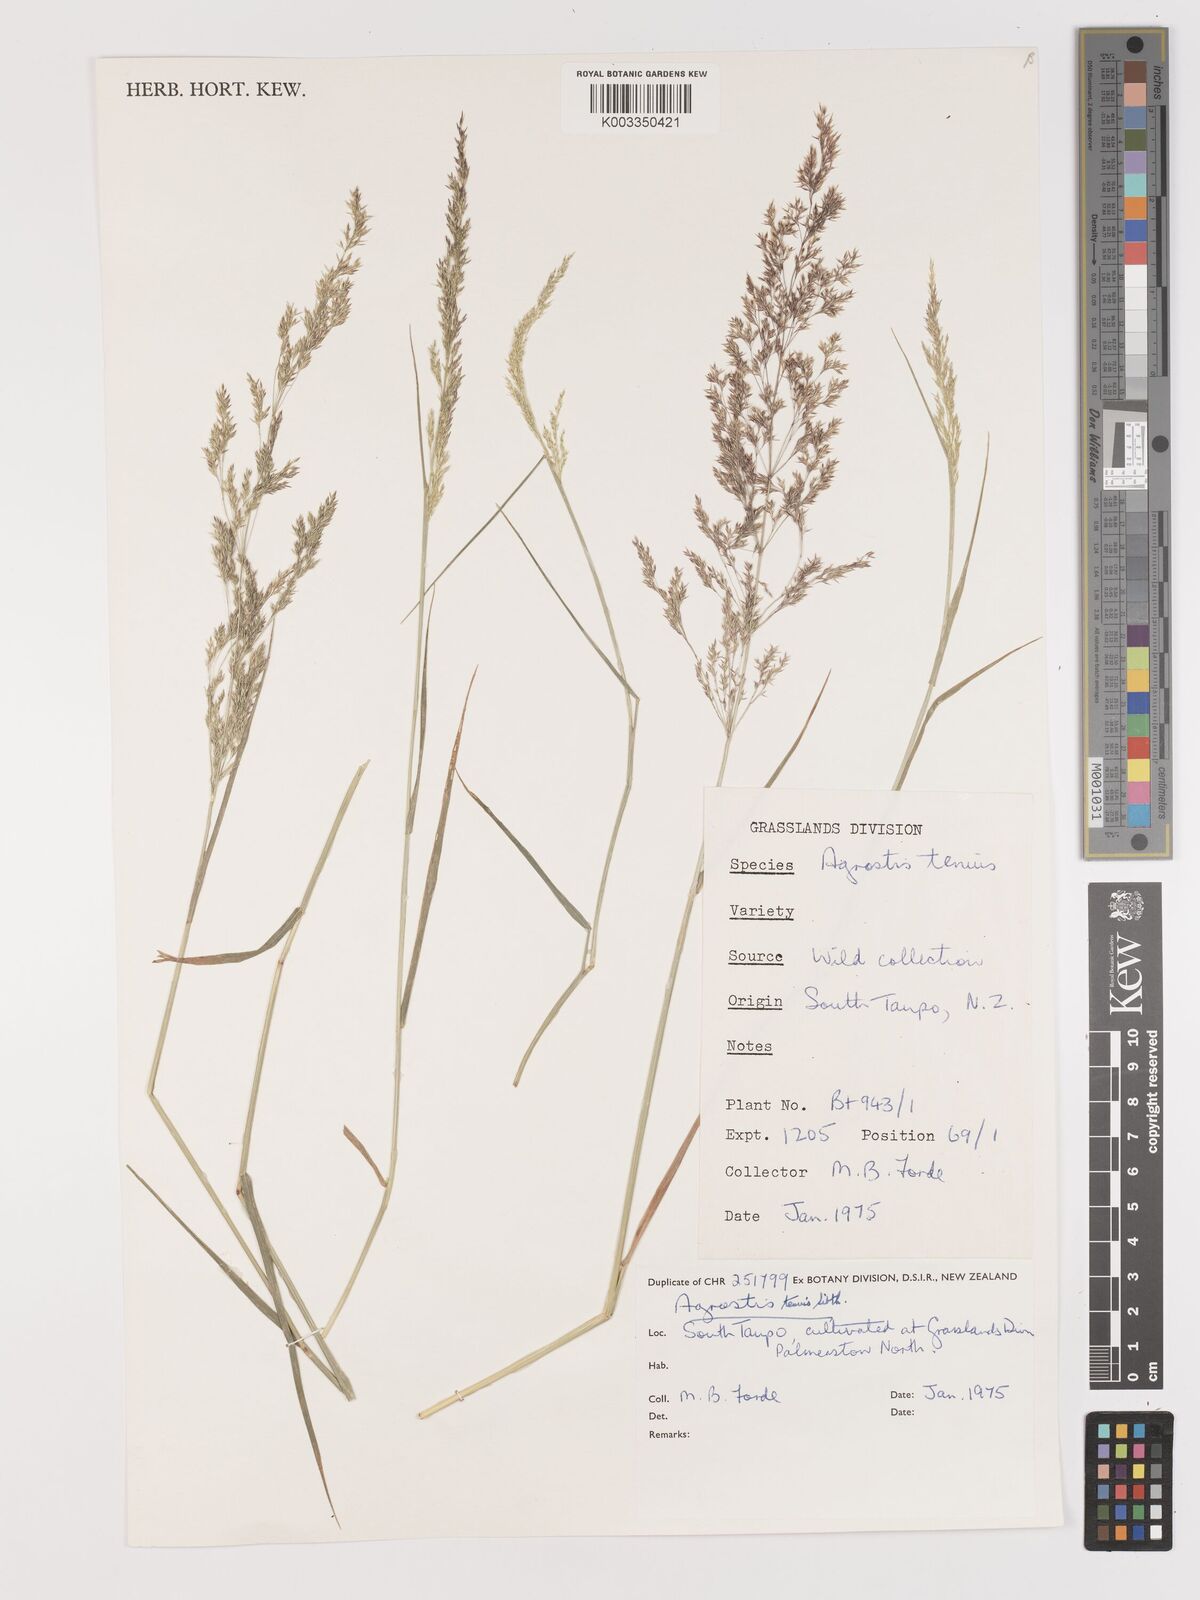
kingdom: Plantae
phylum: Tracheophyta
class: Liliopsida
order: Poales
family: Poaceae
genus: Agrostis
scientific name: Agrostis capillaris
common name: Colonial bentgrass
